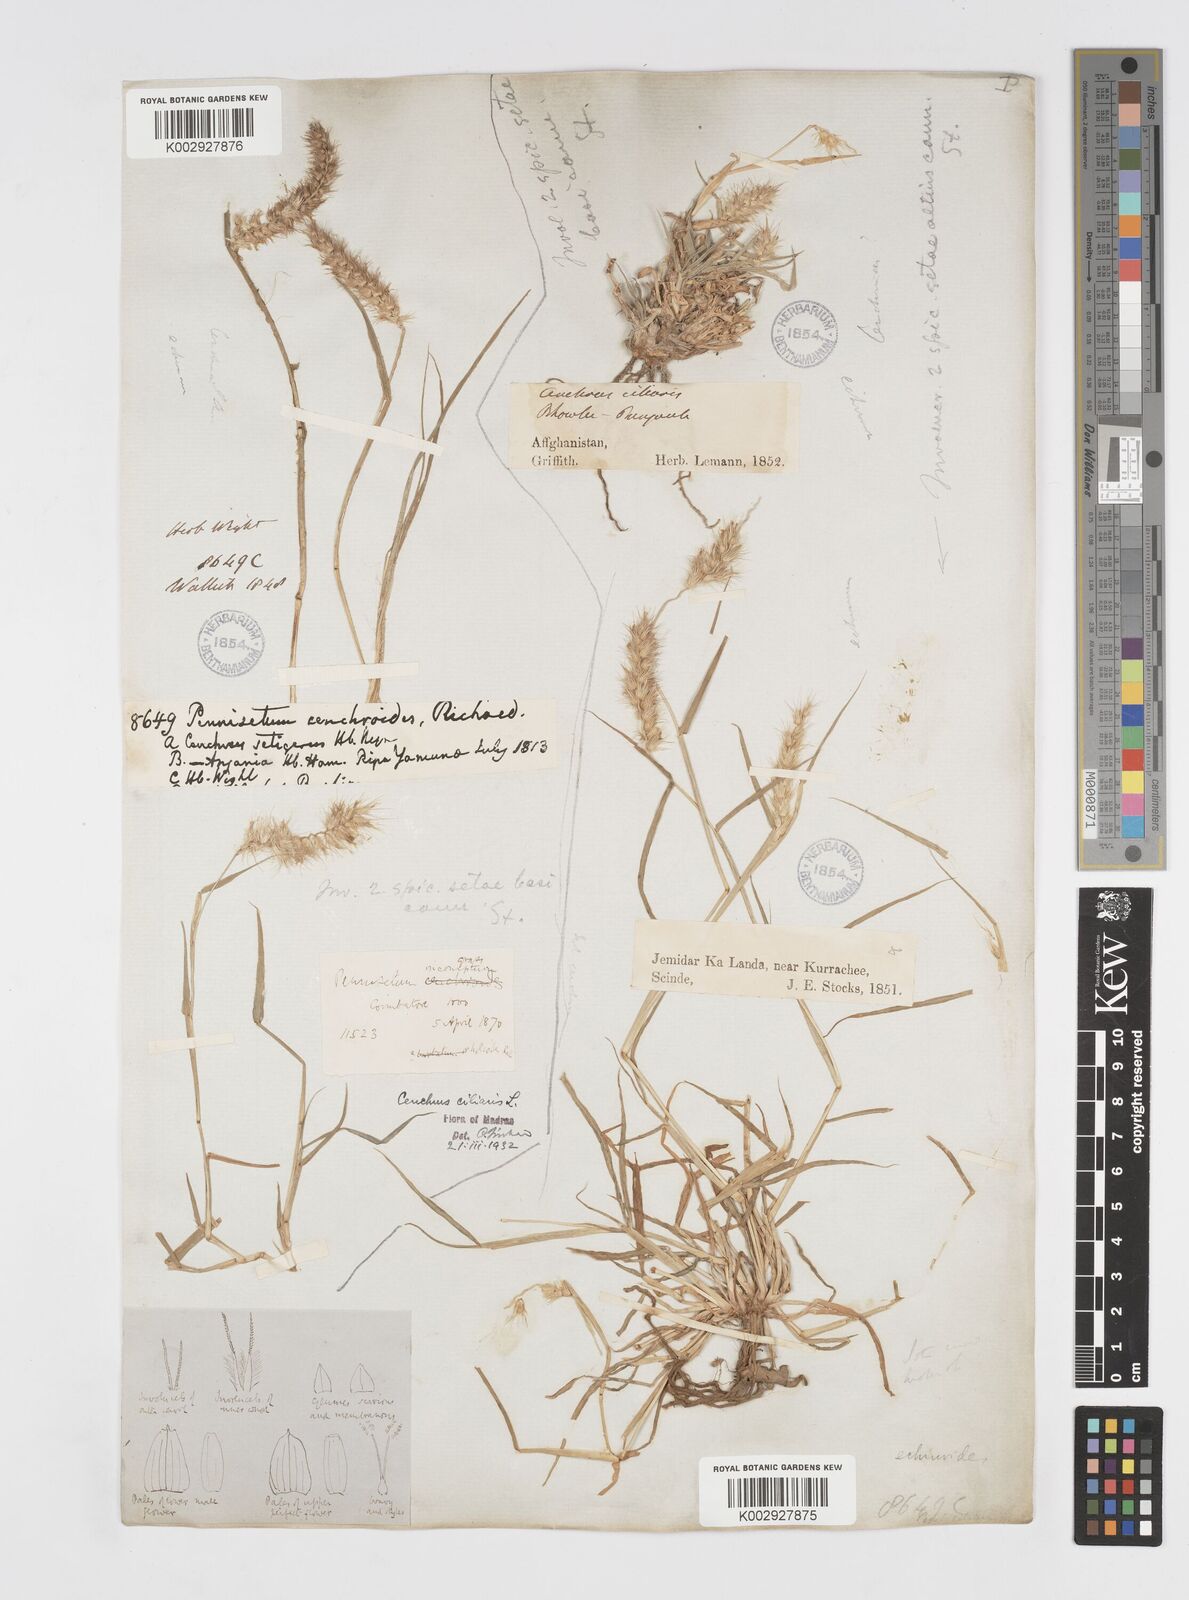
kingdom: Plantae
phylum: Tracheophyta
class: Liliopsida
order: Poales
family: Poaceae
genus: Cenchrus
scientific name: Cenchrus ciliaris
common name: Buffelgrass
